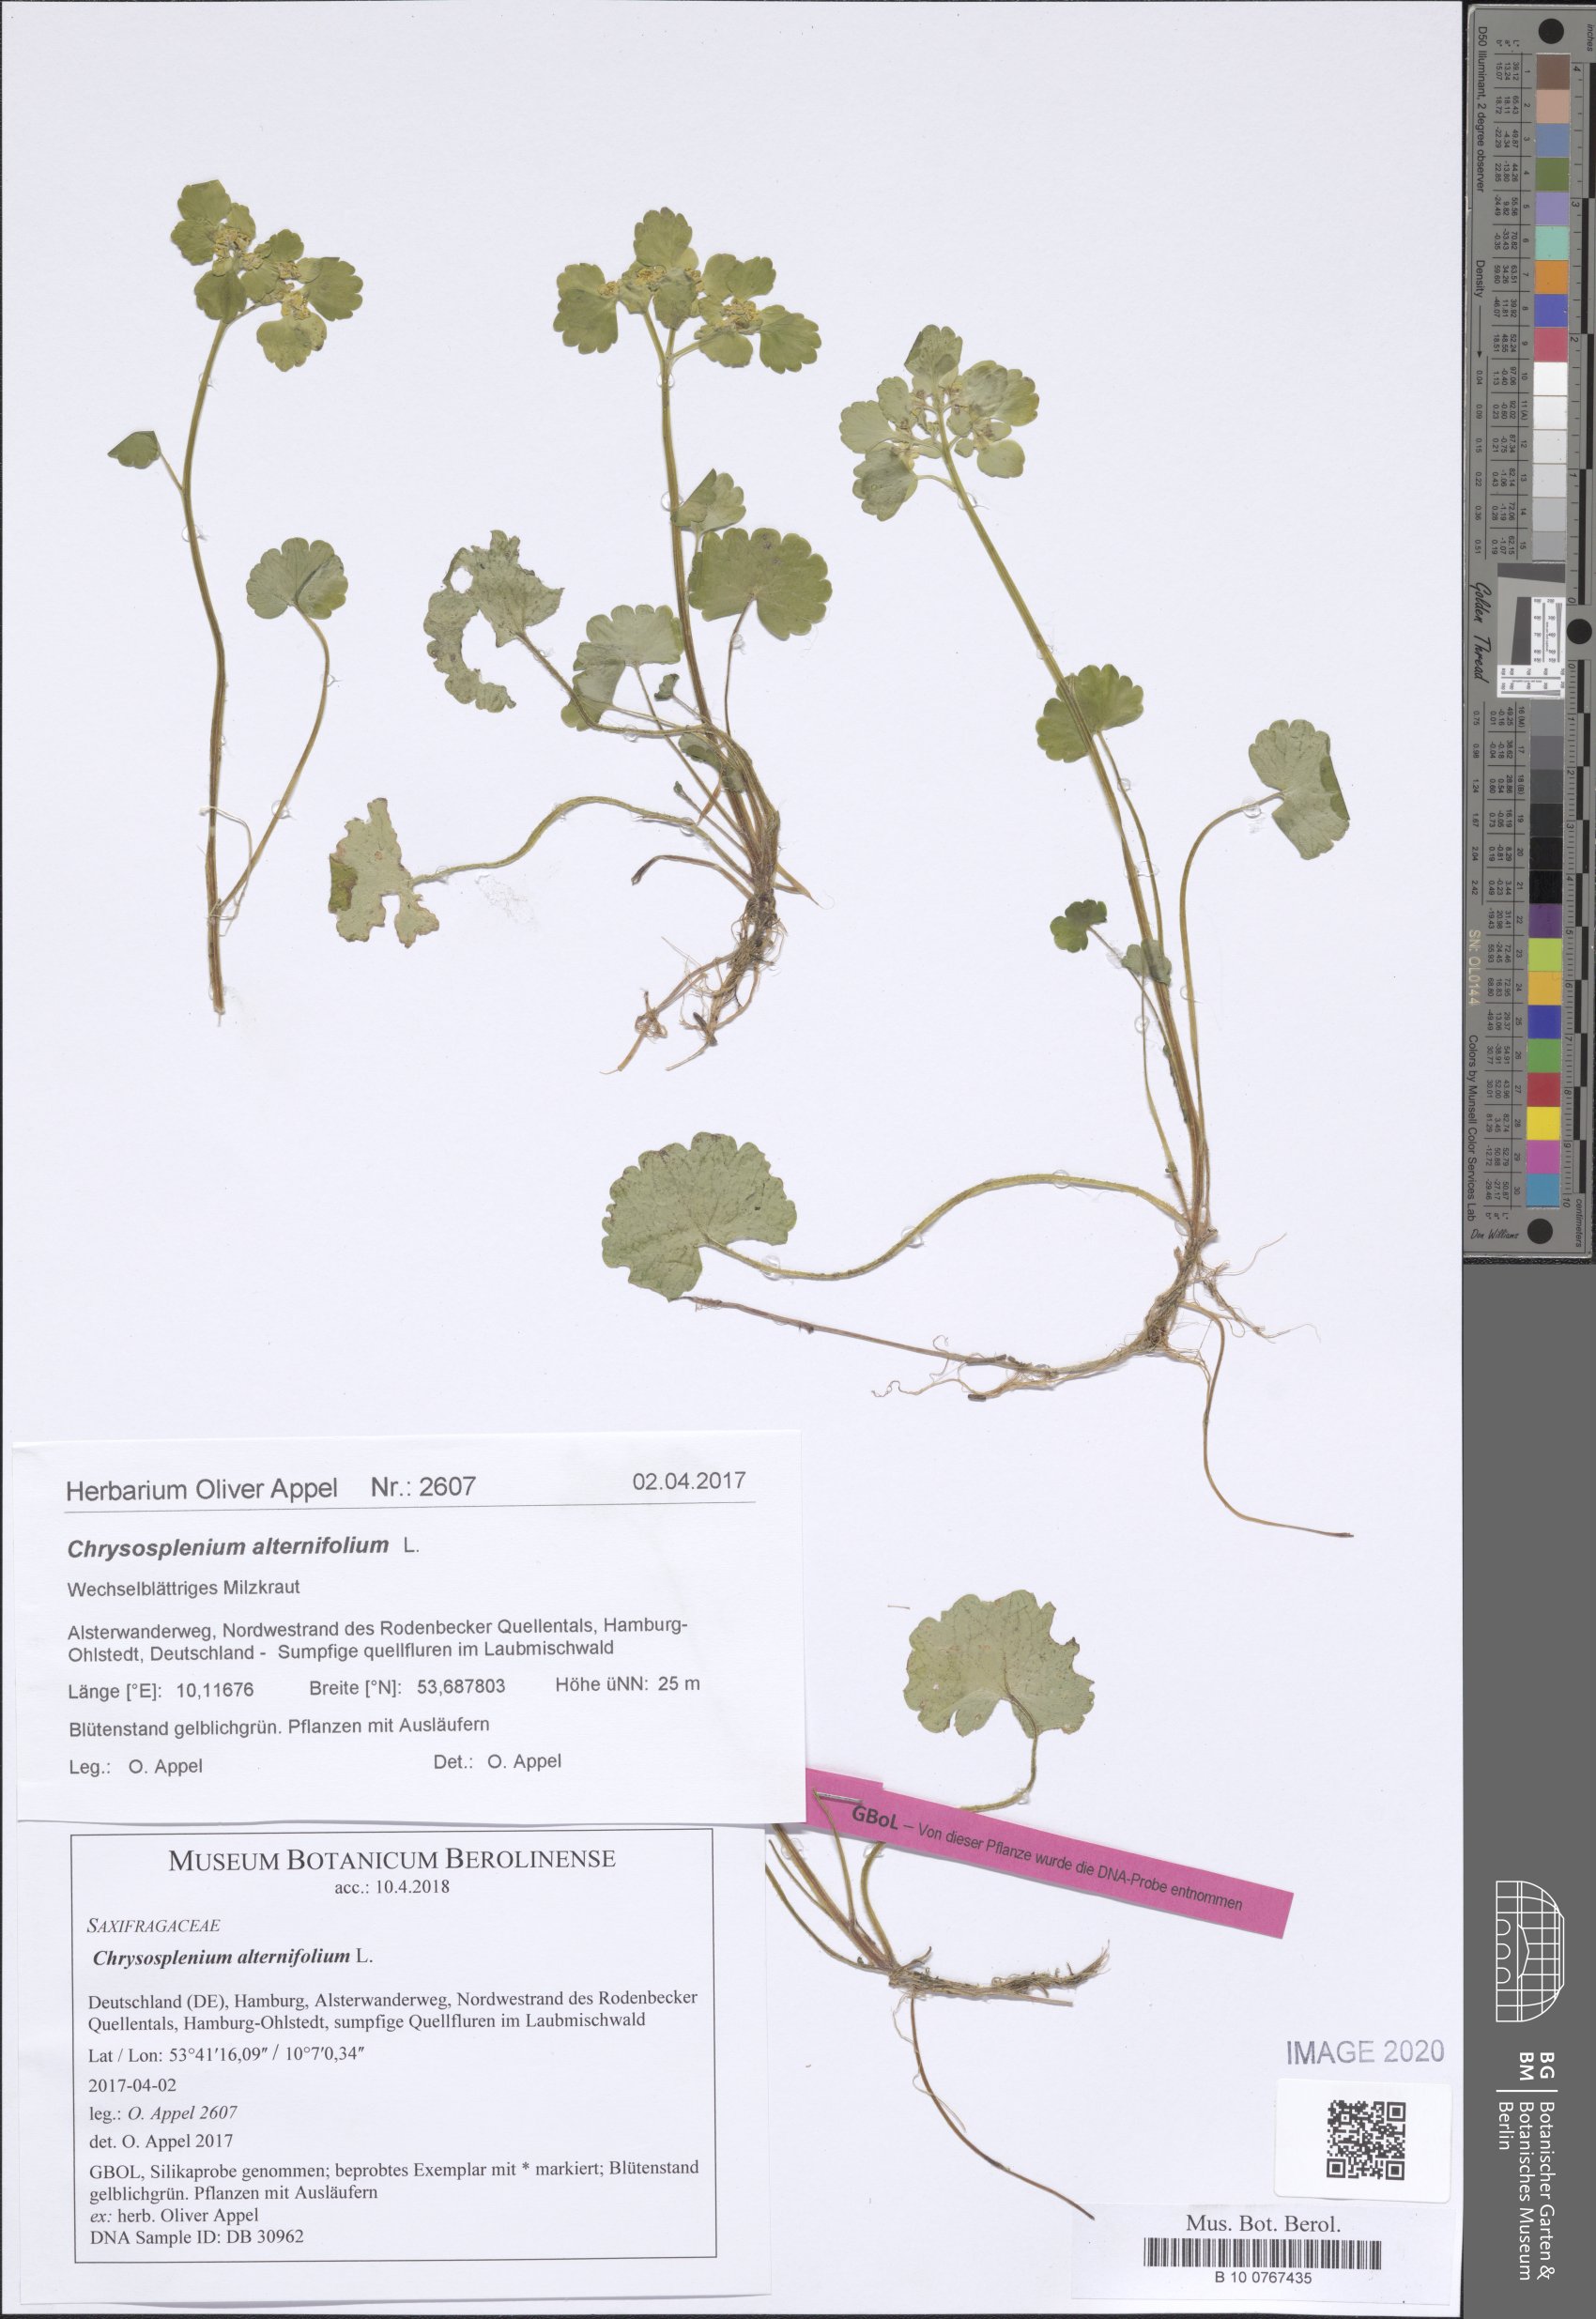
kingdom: Plantae
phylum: Tracheophyta
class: Magnoliopsida
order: Saxifragales
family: Saxifragaceae
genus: Chrysosplenium
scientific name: Chrysosplenium alternifolium
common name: Alternate-leaved golden-saxifrage
